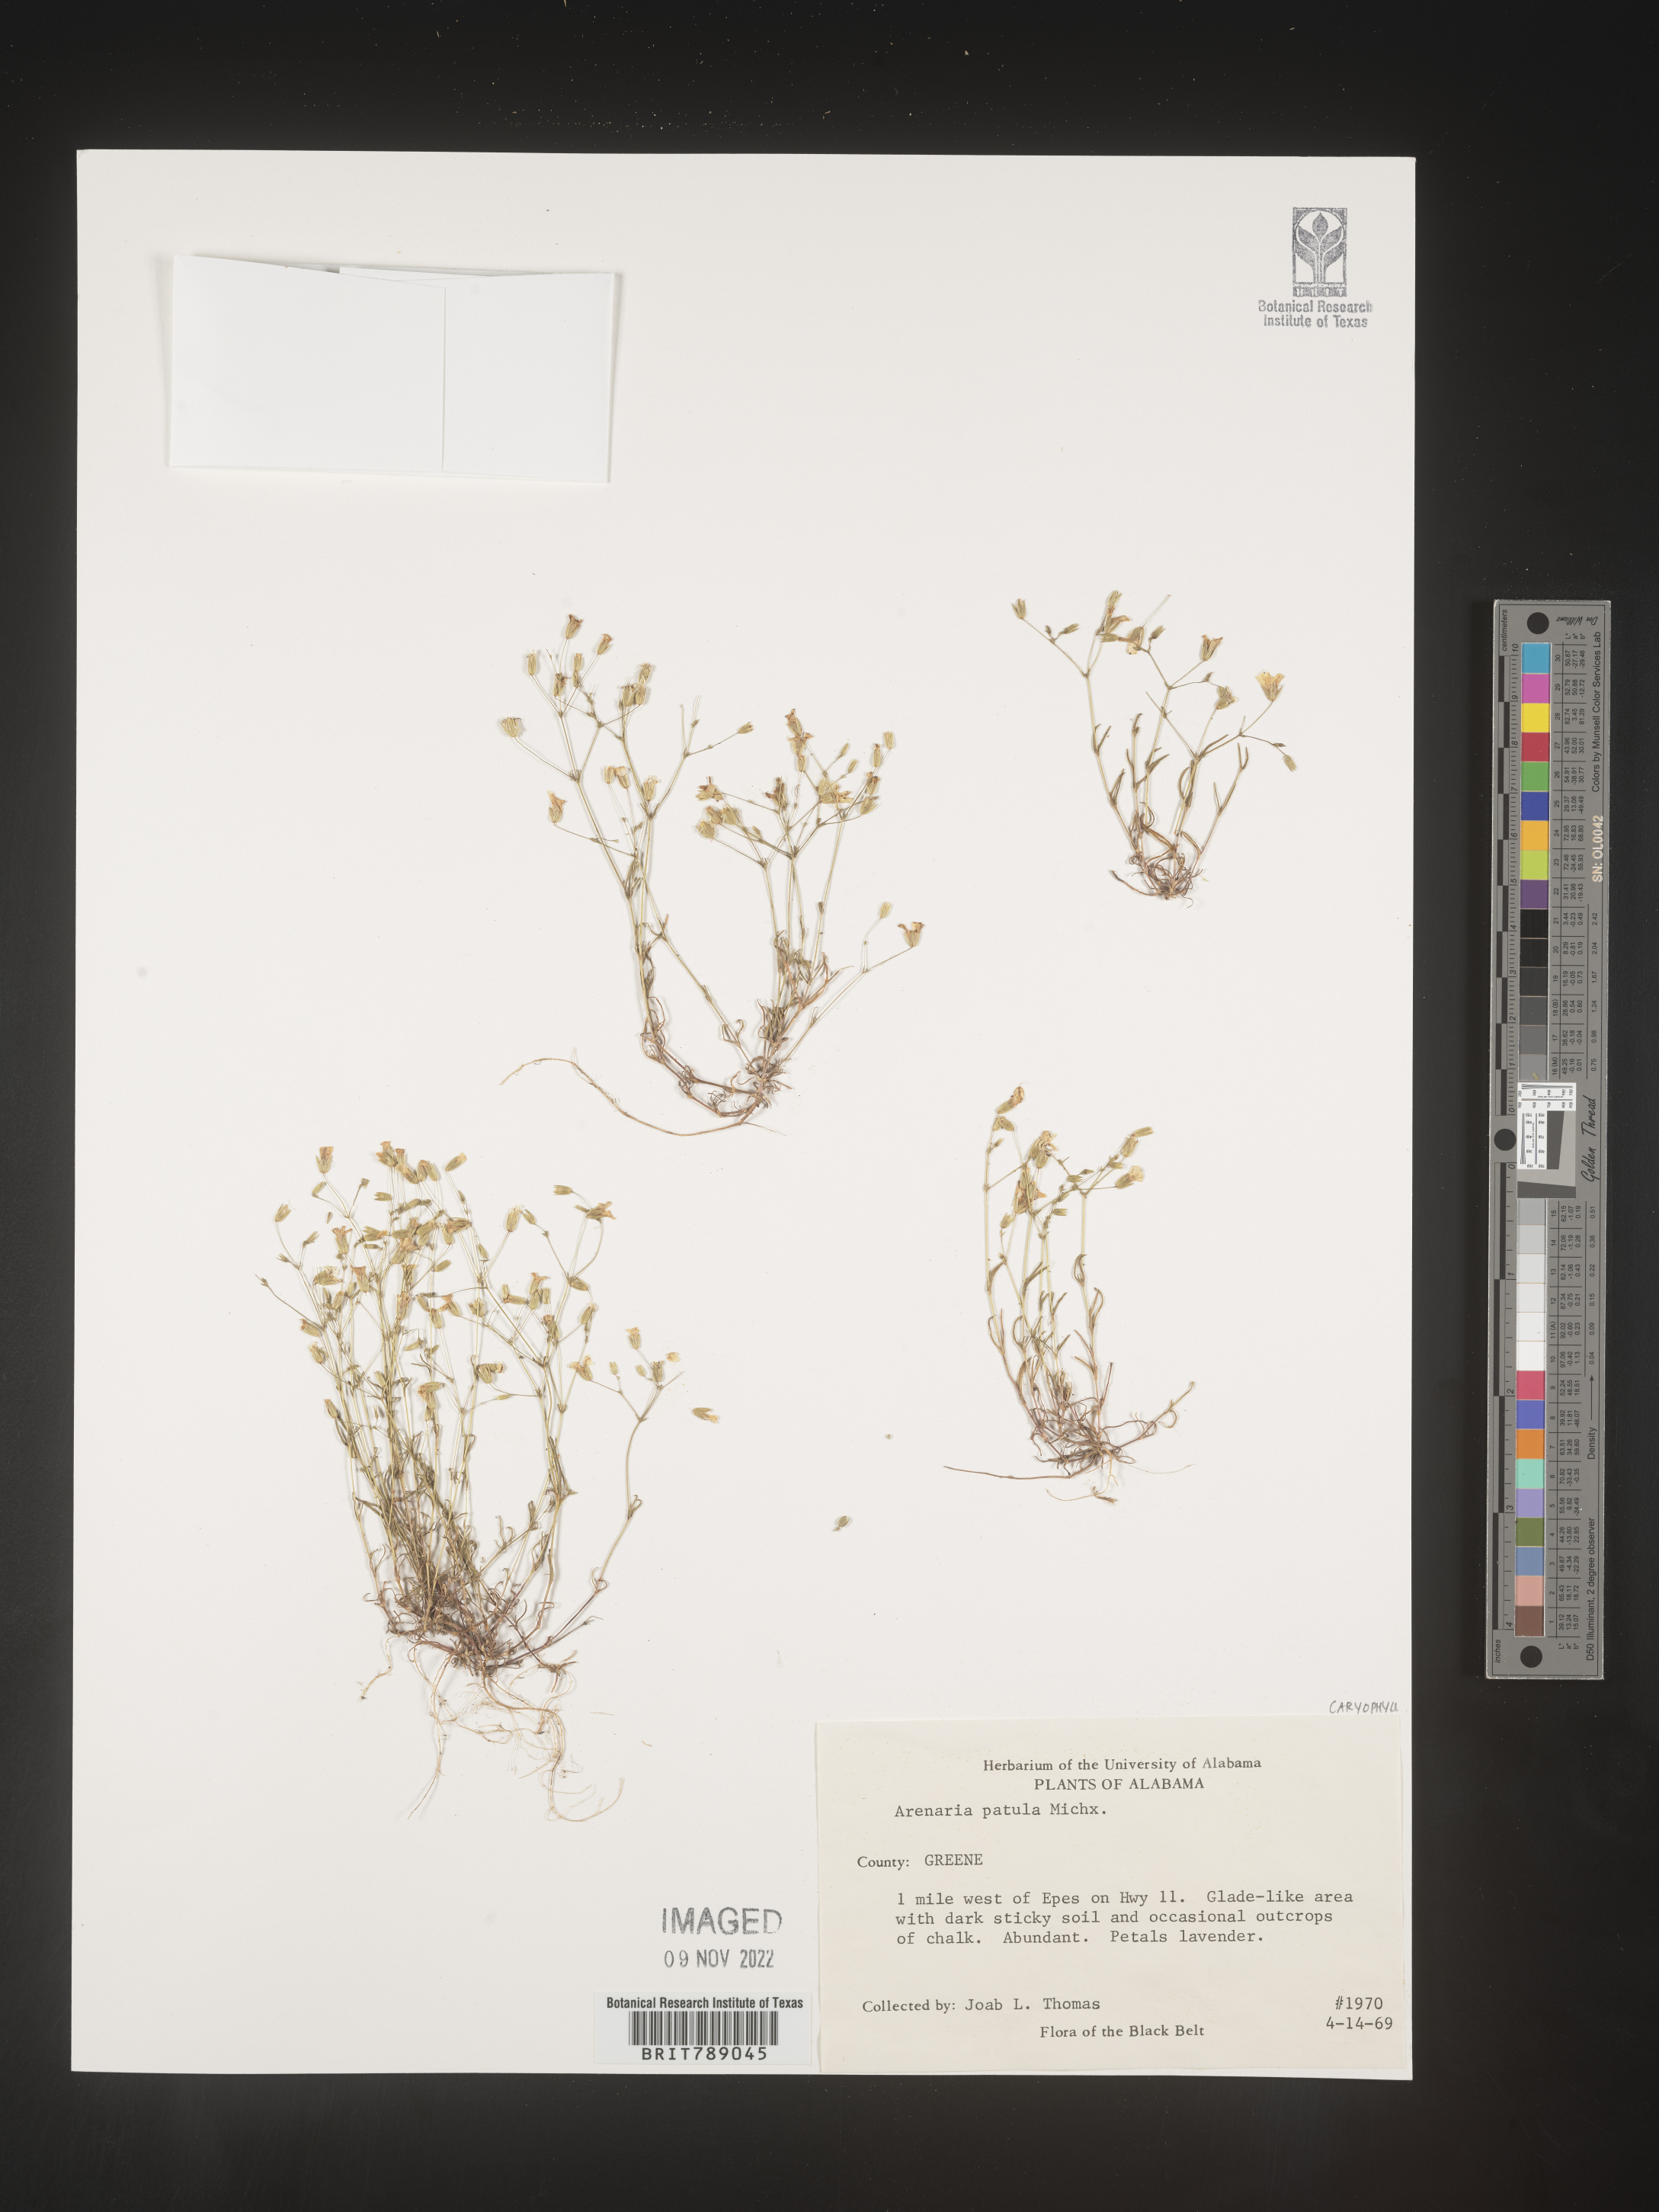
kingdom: Plantae
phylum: Tracheophyta
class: Magnoliopsida
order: Caryophyllales
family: Caryophyllaceae
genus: Mononeuria
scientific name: Mononeuria patula
